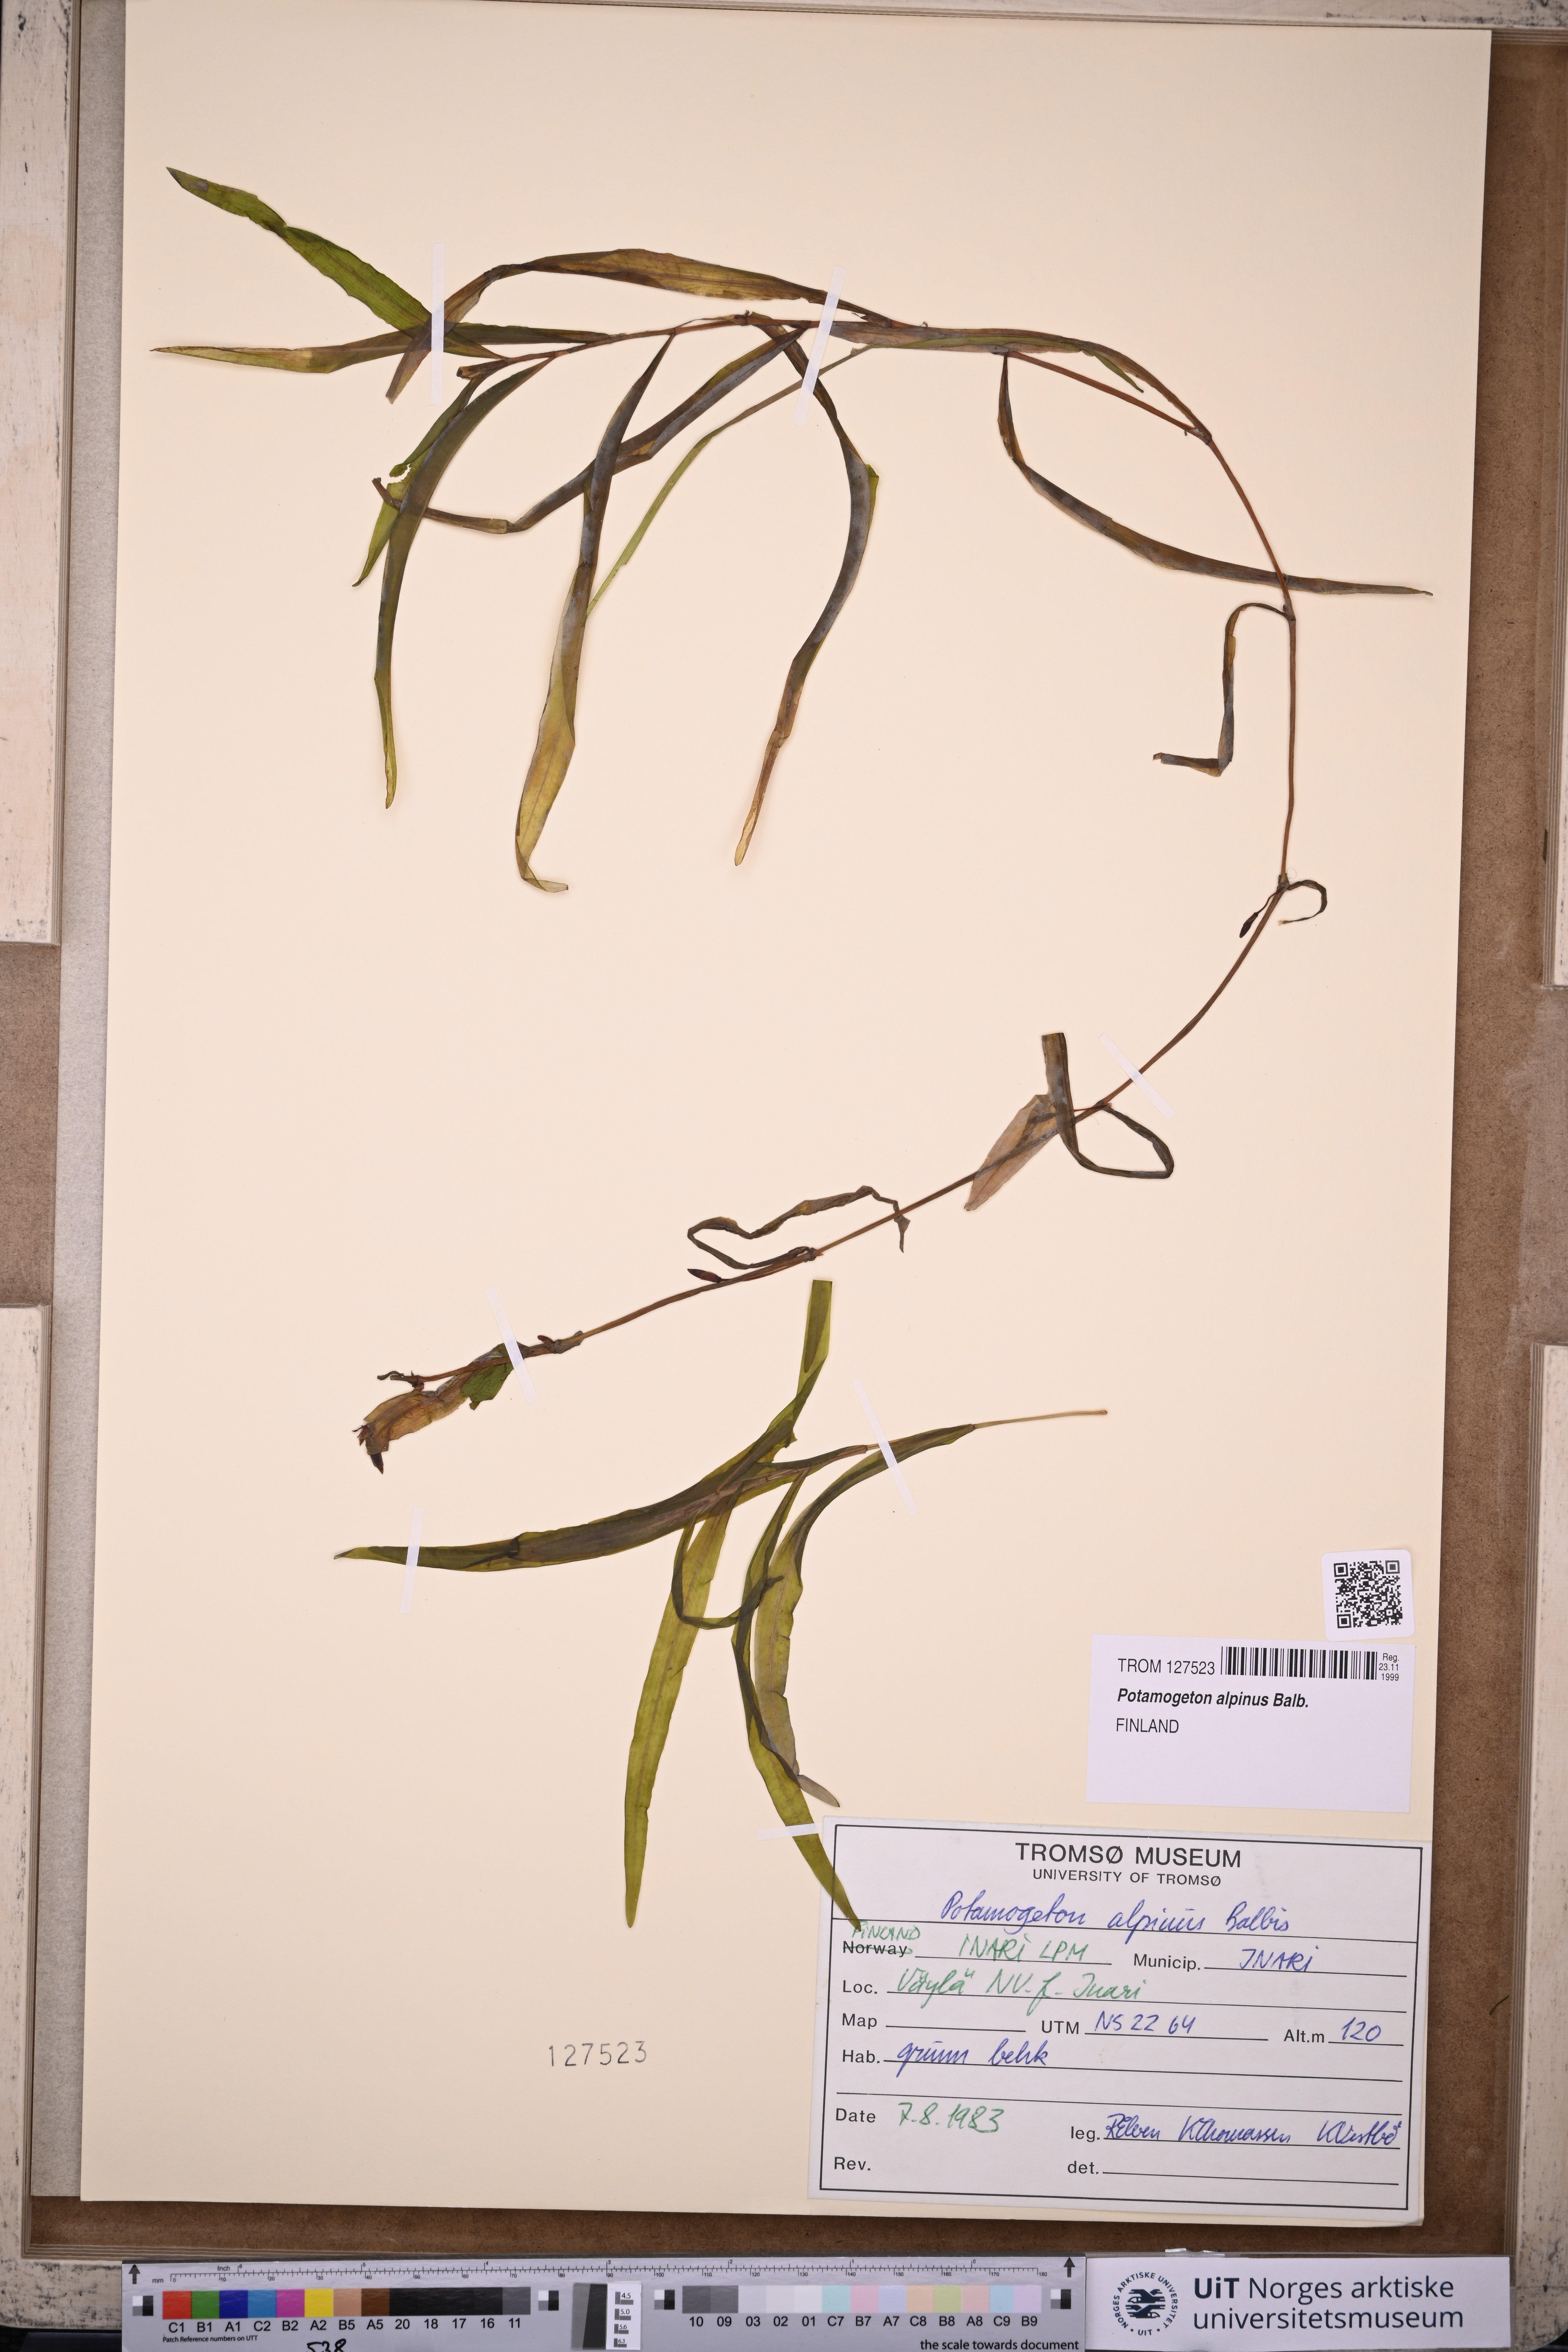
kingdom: Plantae
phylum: Tracheophyta
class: Liliopsida
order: Alismatales
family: Potamogetonaceae
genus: Potamogeton
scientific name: Potamogeton alpinus
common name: Red pondweed
